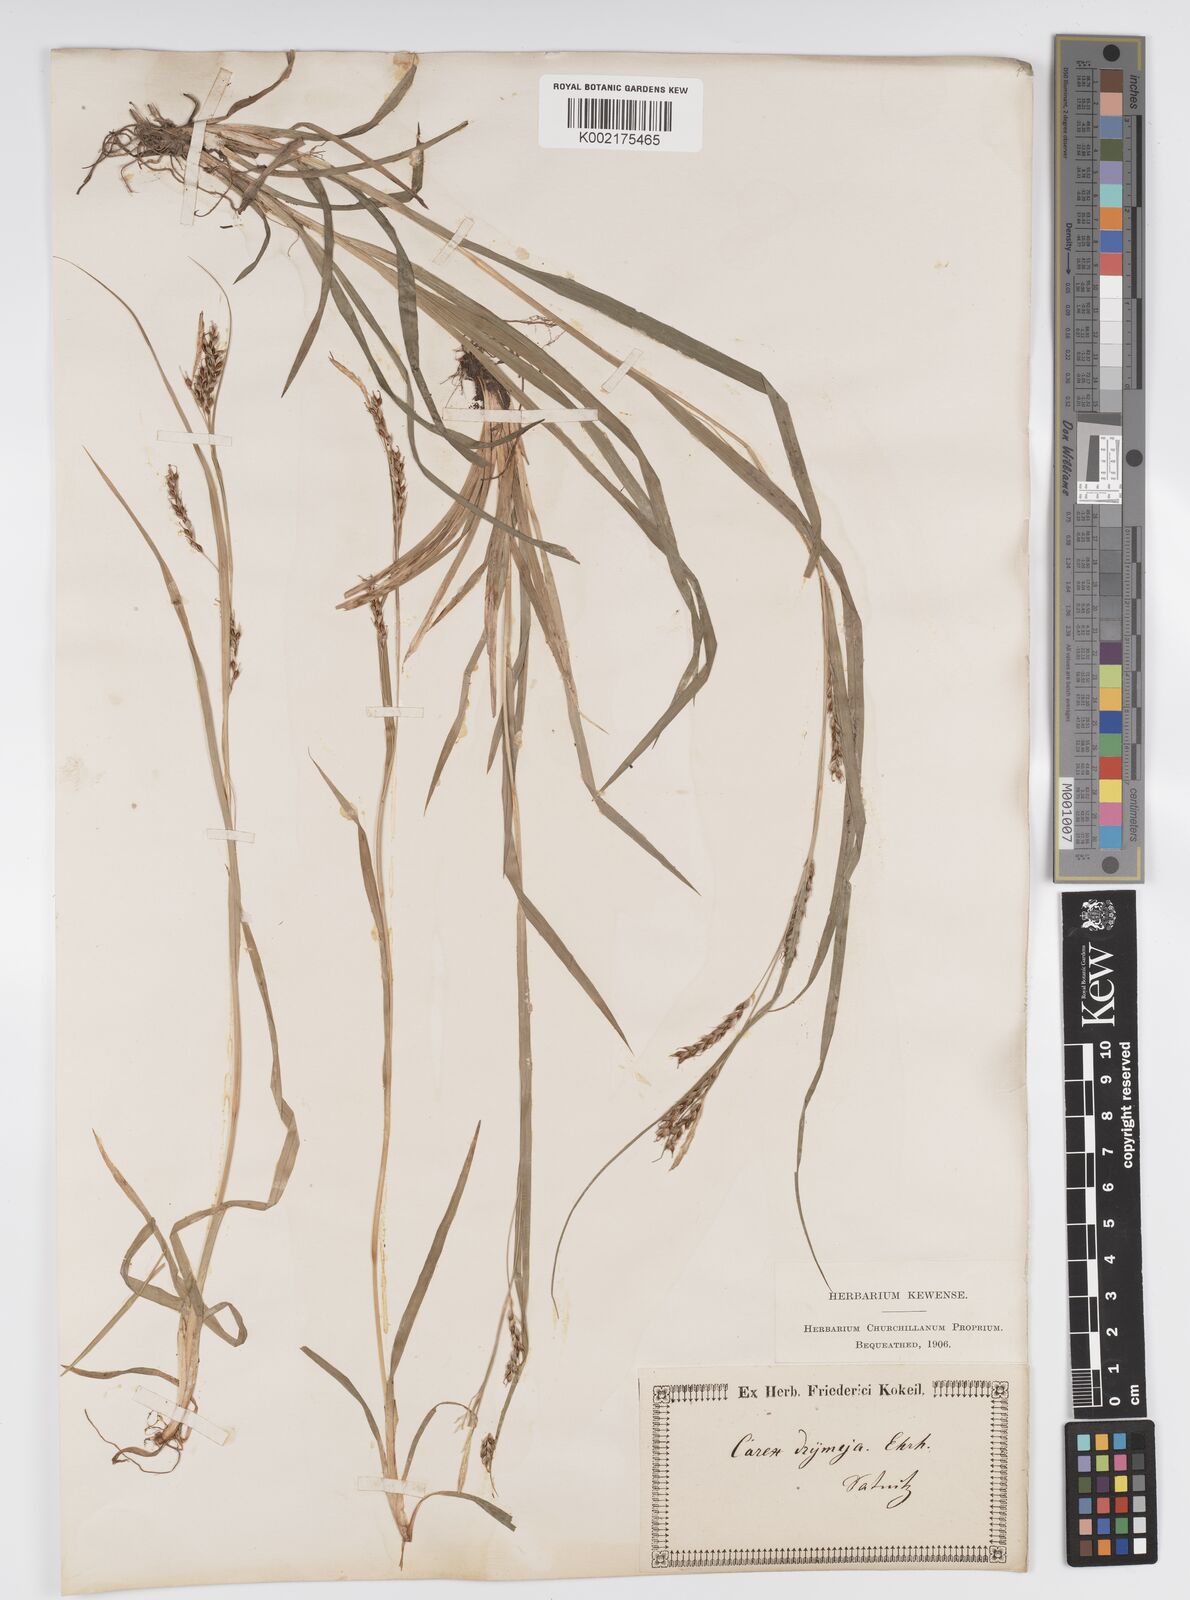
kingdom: Plantae
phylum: Tracheophyta
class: Liliopsida
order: Poales
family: Cyperaceae
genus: Carex
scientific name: Carex sylvatica
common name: Wood-sedge
